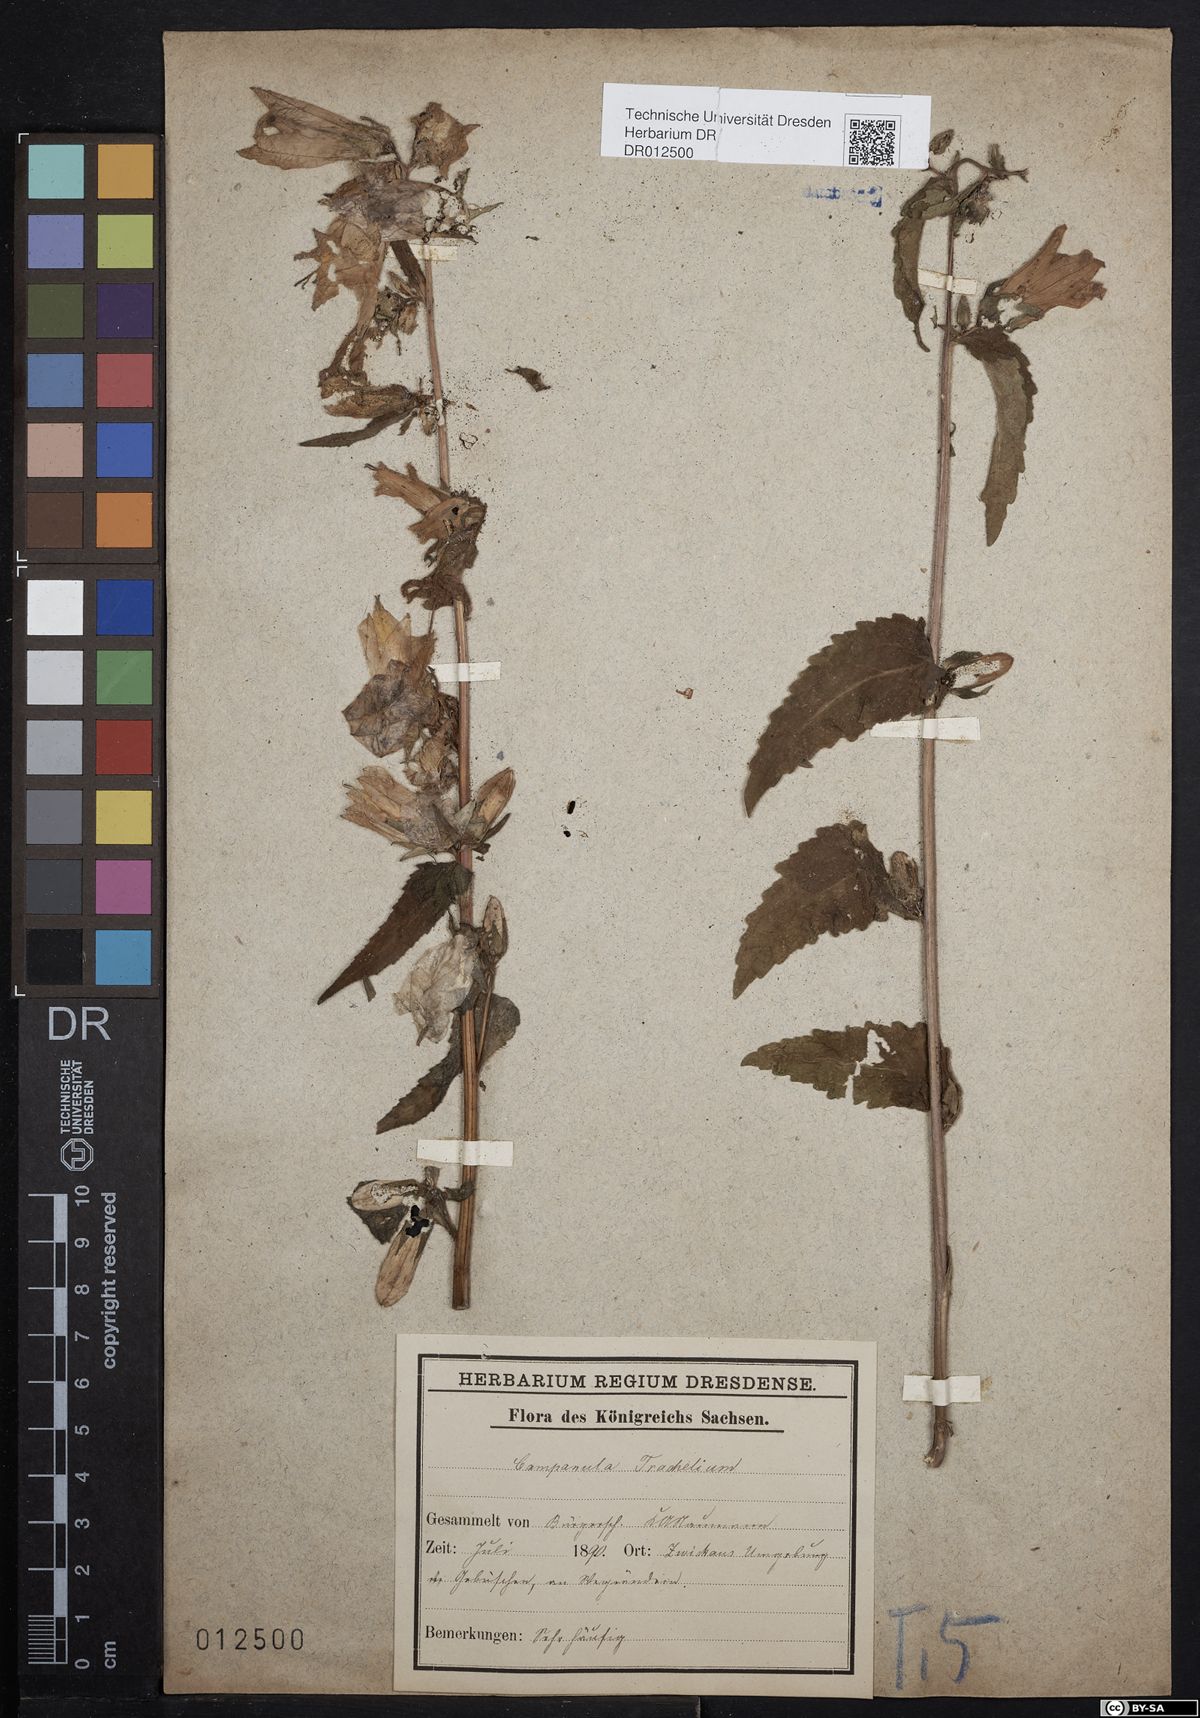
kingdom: Plantae
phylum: Tracheophyta
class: Magnoliopsida
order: Asterales
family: Campanulaceae
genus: Campanula
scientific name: Campanula trachelium
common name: Nettle-leaved bellflower
